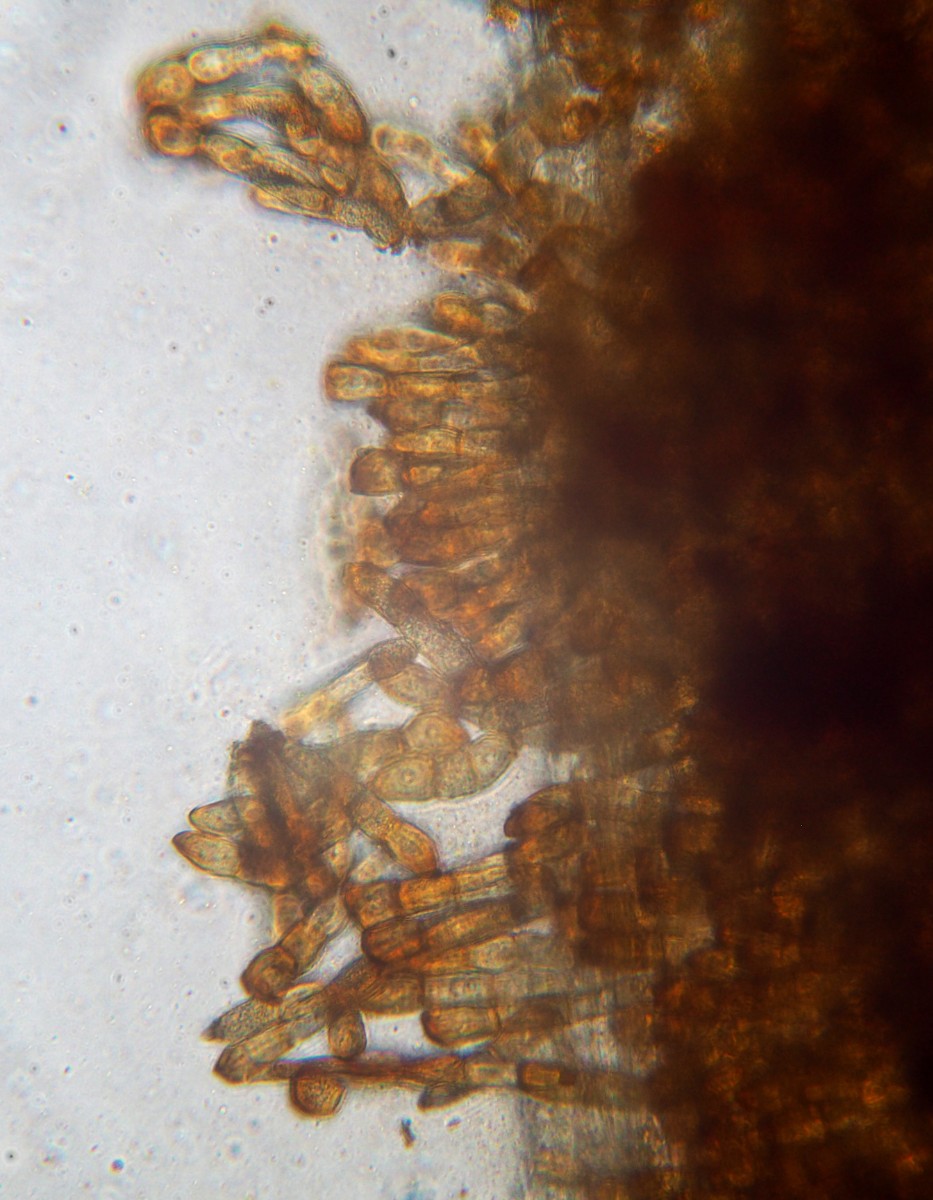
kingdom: Fungi
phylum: Basidiomycota
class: Pucciniomycetes
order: Pucciniales
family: Pucciniaceae
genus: Puccinia
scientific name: Puccinia elymi
